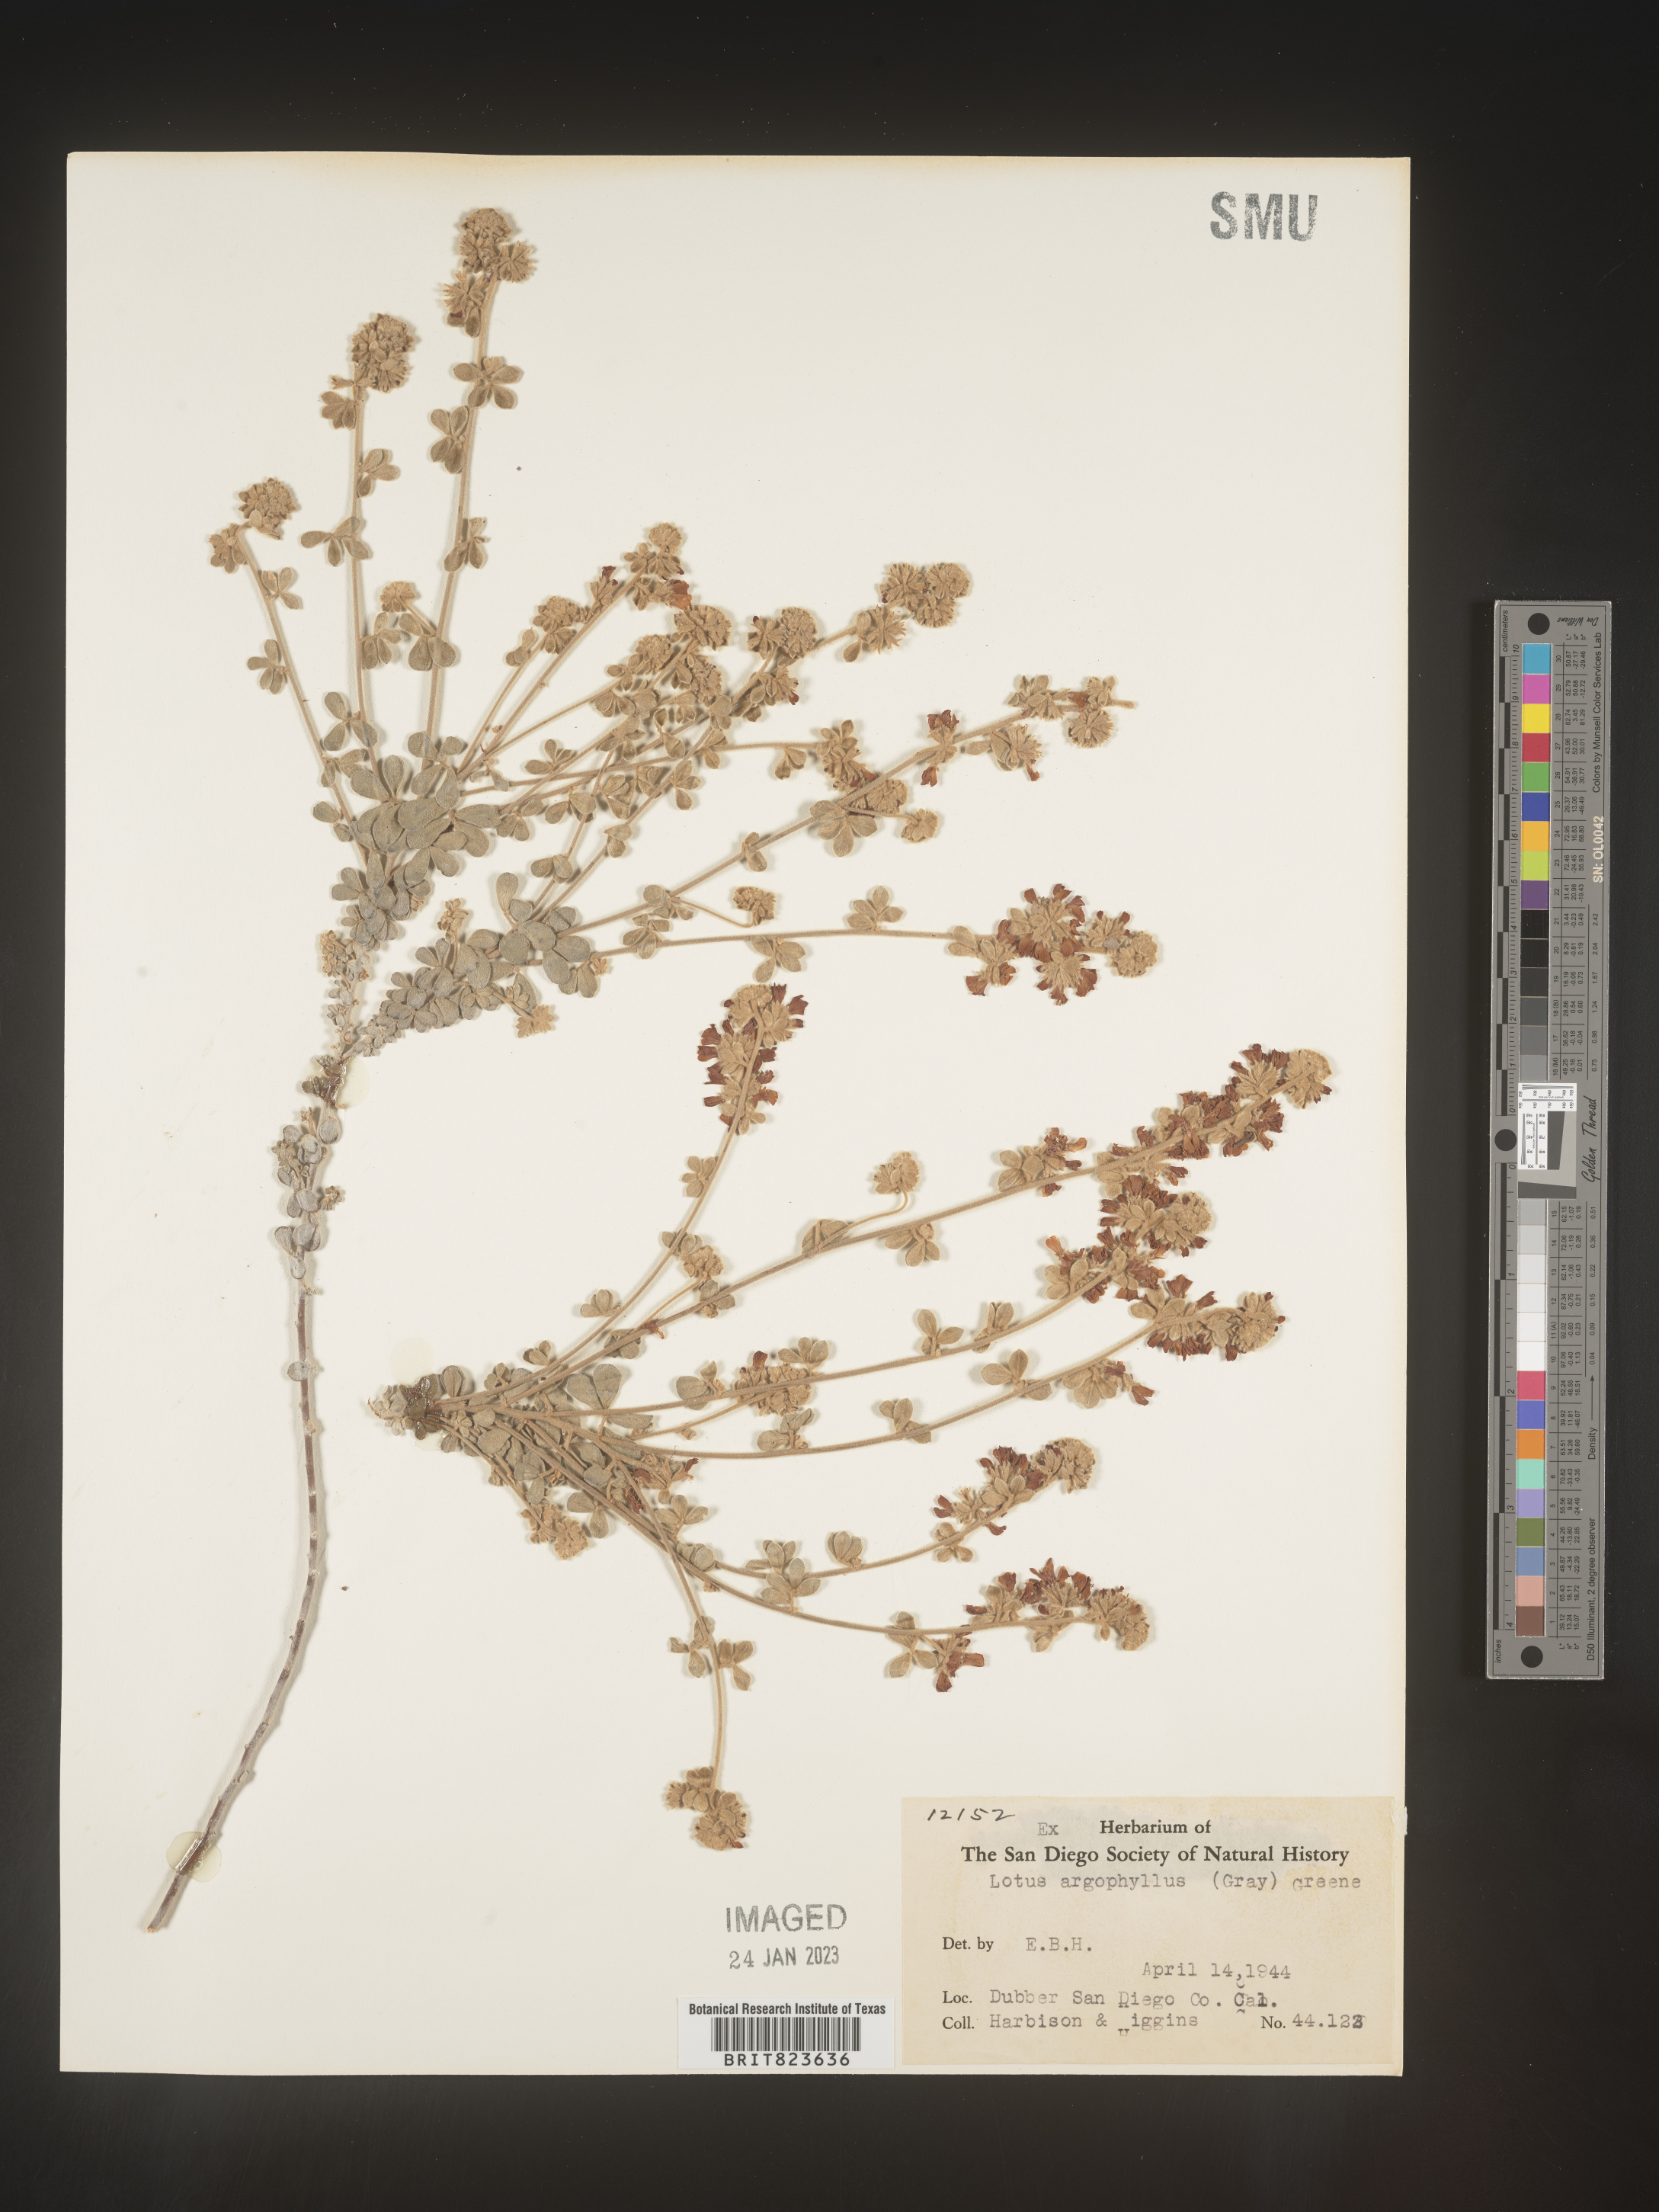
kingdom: Plantae
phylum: Tracheophyta
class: Magnoliopsida
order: Fabales
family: Fabaceae
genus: Lotus
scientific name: Lotus
